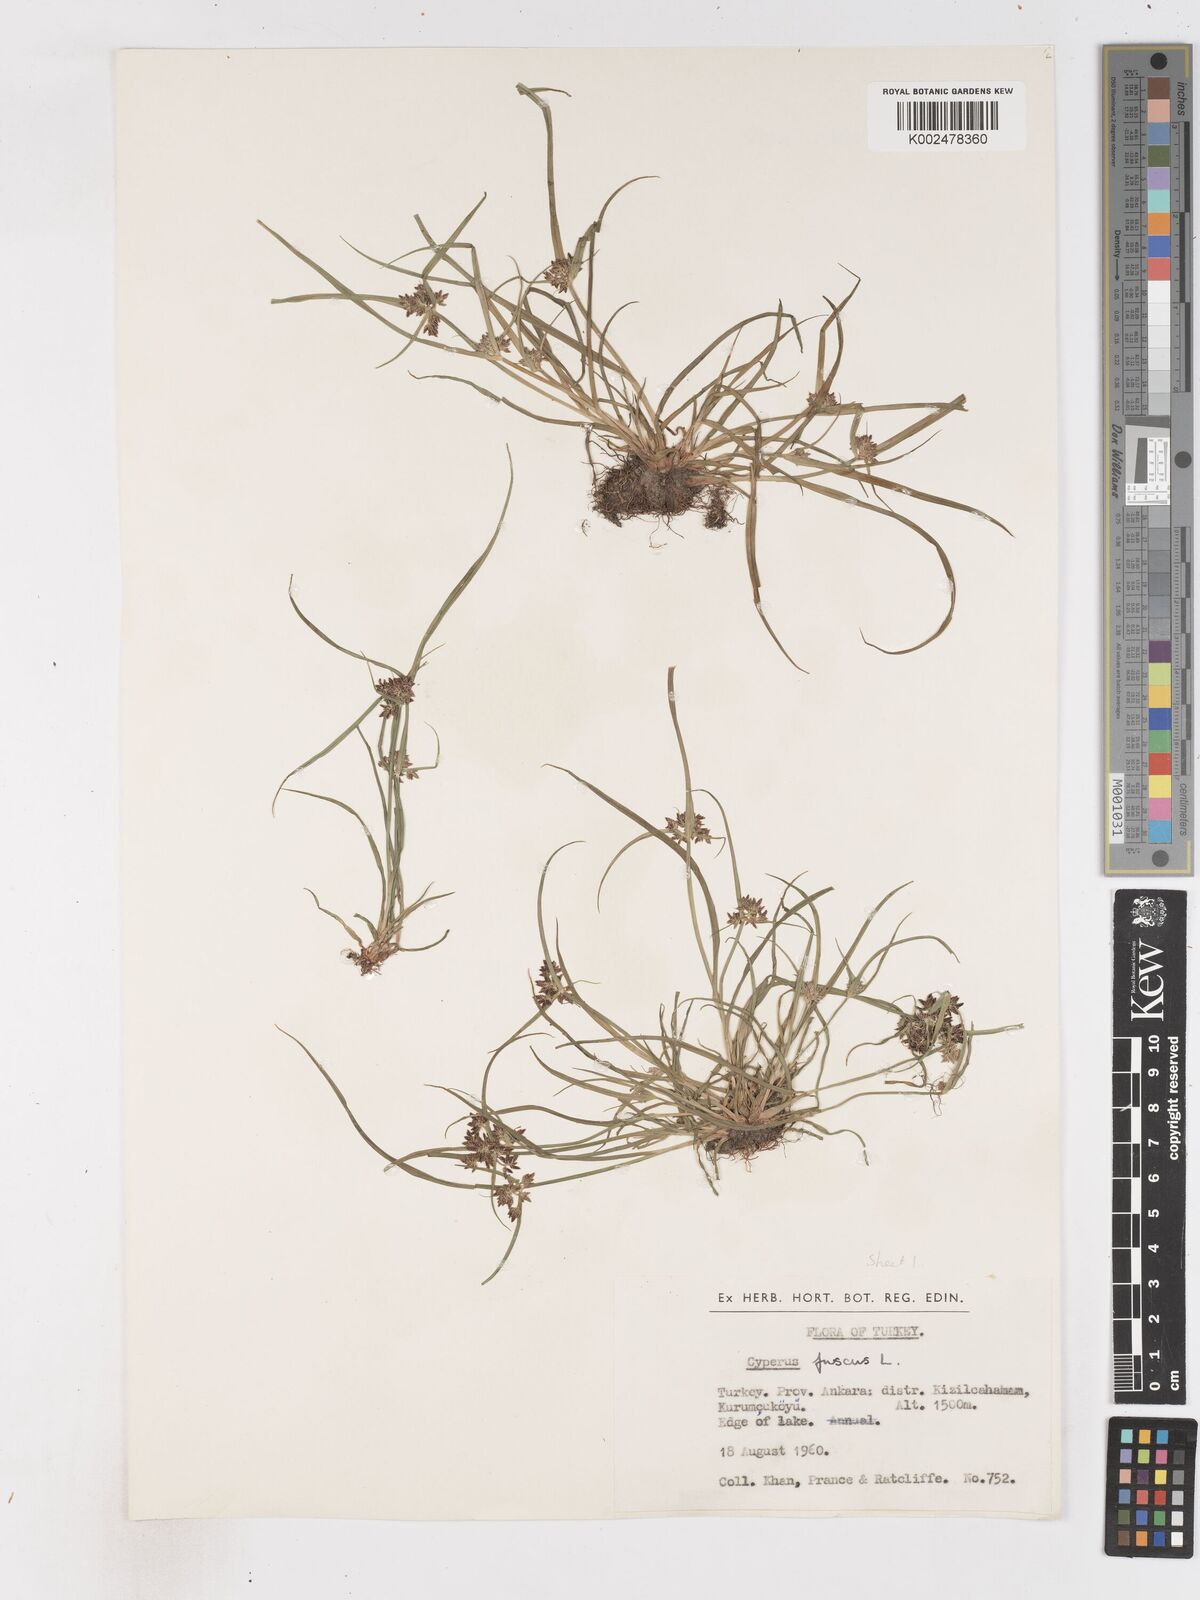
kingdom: Plantae
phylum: Tracheophyta
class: Liliopsida
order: Poales
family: Cyperaceae
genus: Cyperus
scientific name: Cyperus fuscus
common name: Brown galingale
